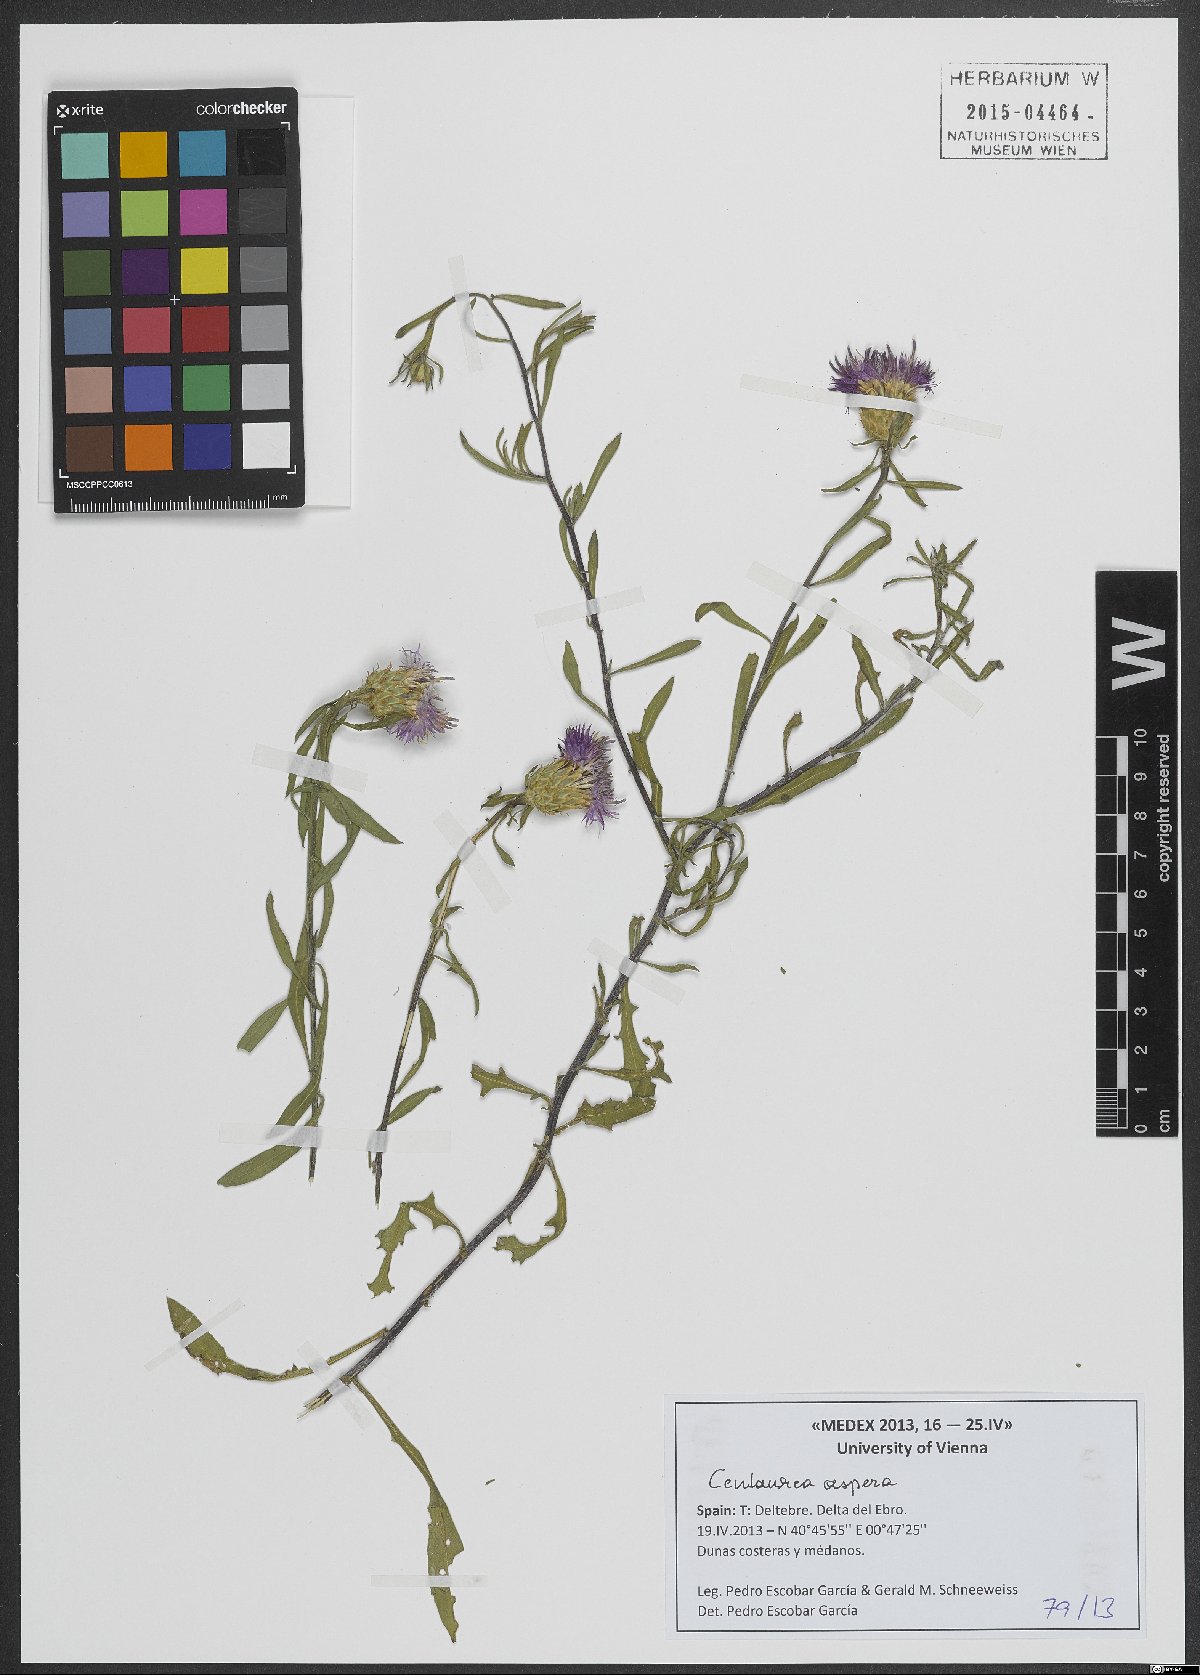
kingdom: Plantae
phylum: Tracheophyta
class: Magnoliopsida
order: Asterales
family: Asteraceae
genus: Centaurea
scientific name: Centaurea aspera
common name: Rough star-thistle
